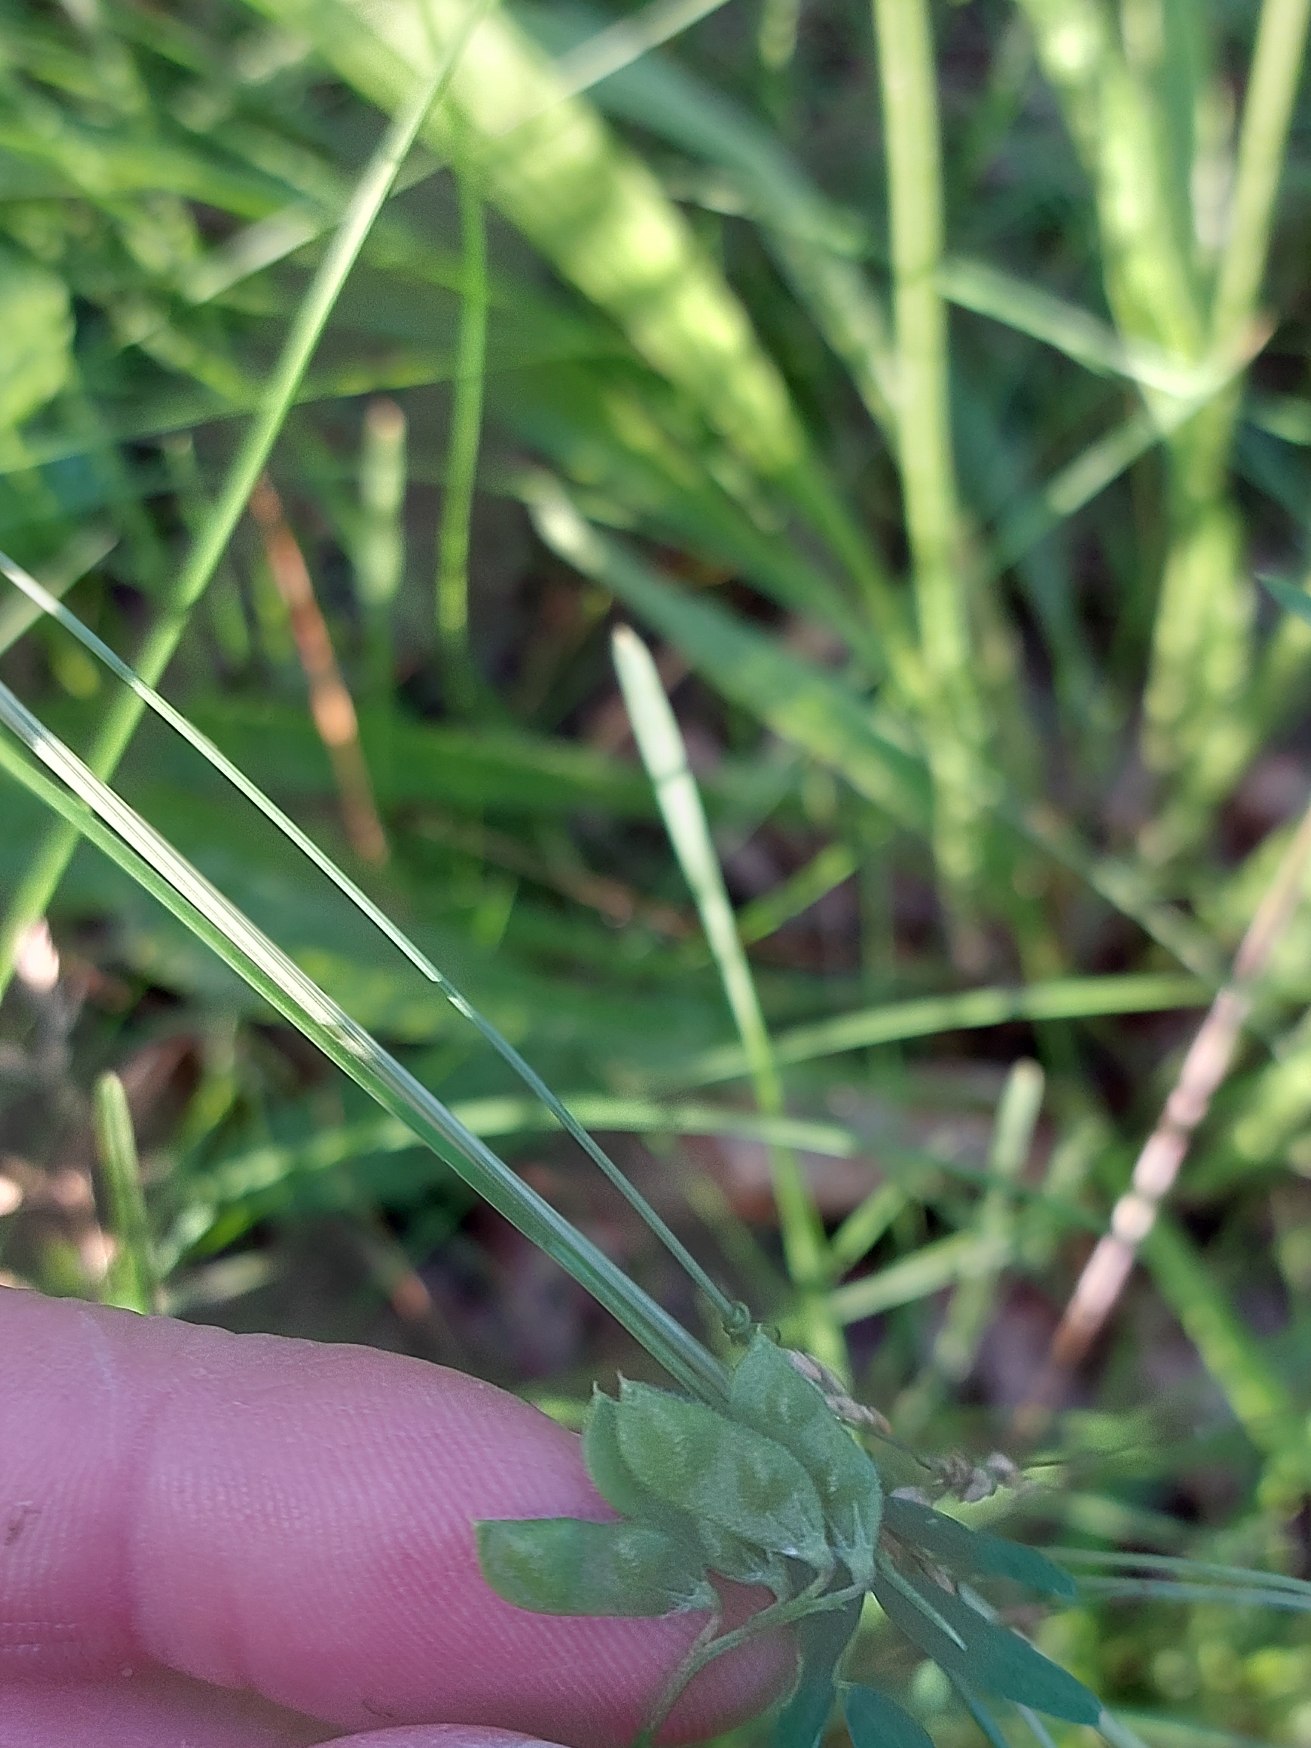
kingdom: Plantae
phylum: Tracheophyta
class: Magnoliopsida
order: Fabales
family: Fabaceae
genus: Vicia
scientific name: Vicia hirsuta
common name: Tofrøet vikke
